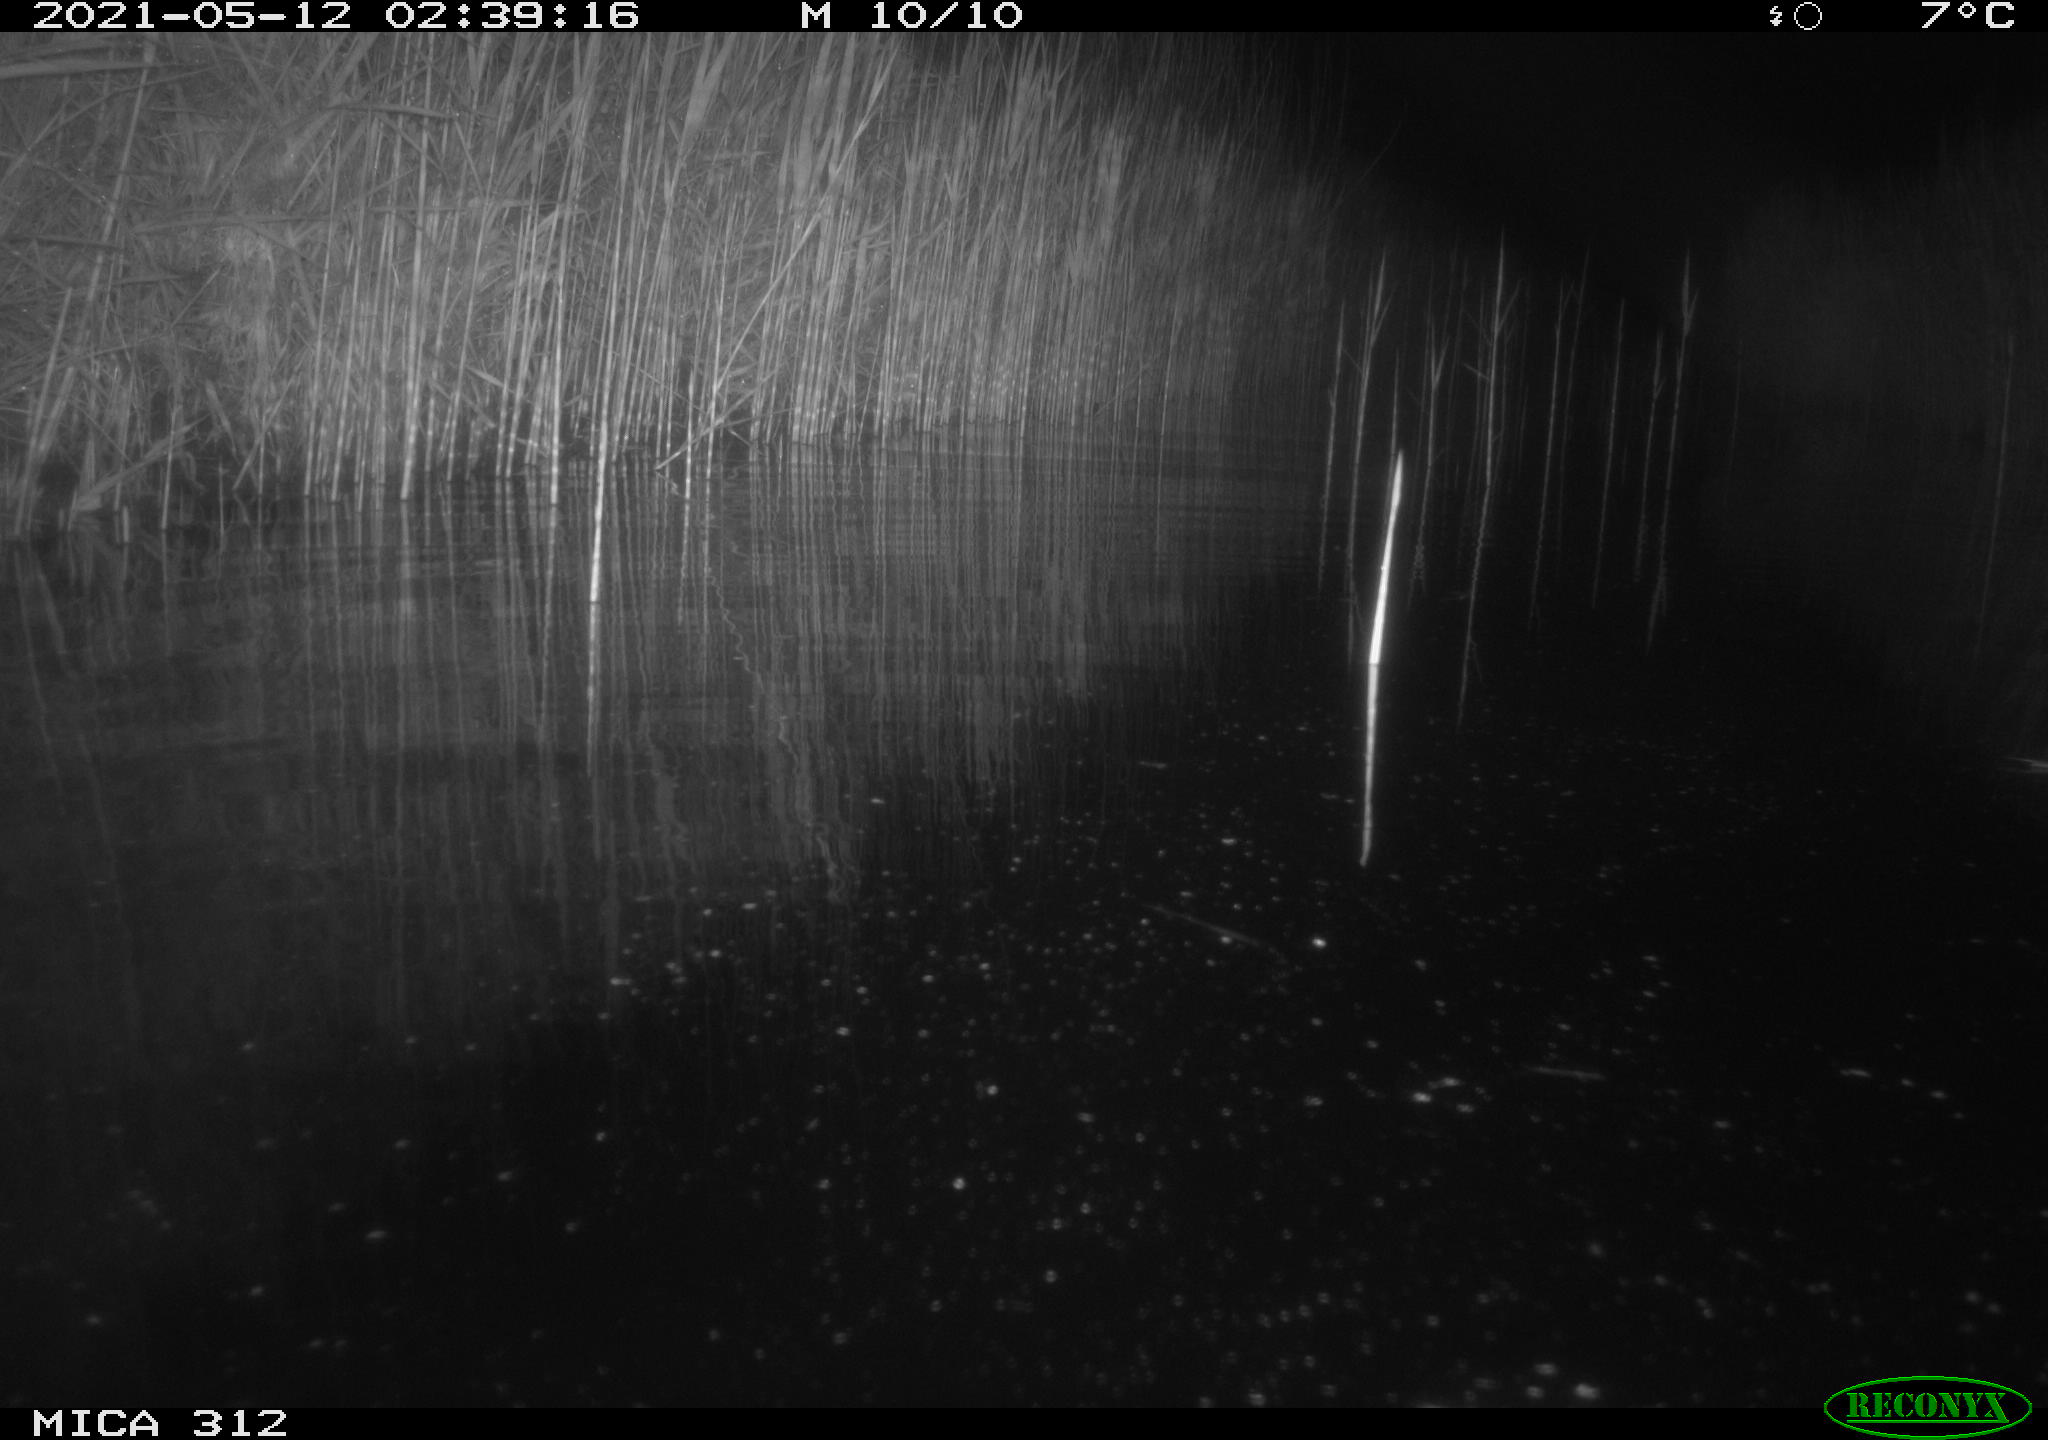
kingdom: Animalia
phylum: Chordata
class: Mammalia
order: Rodentia
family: Muridae
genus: Rattus
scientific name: Rattus norvegicus
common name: Brown rat
